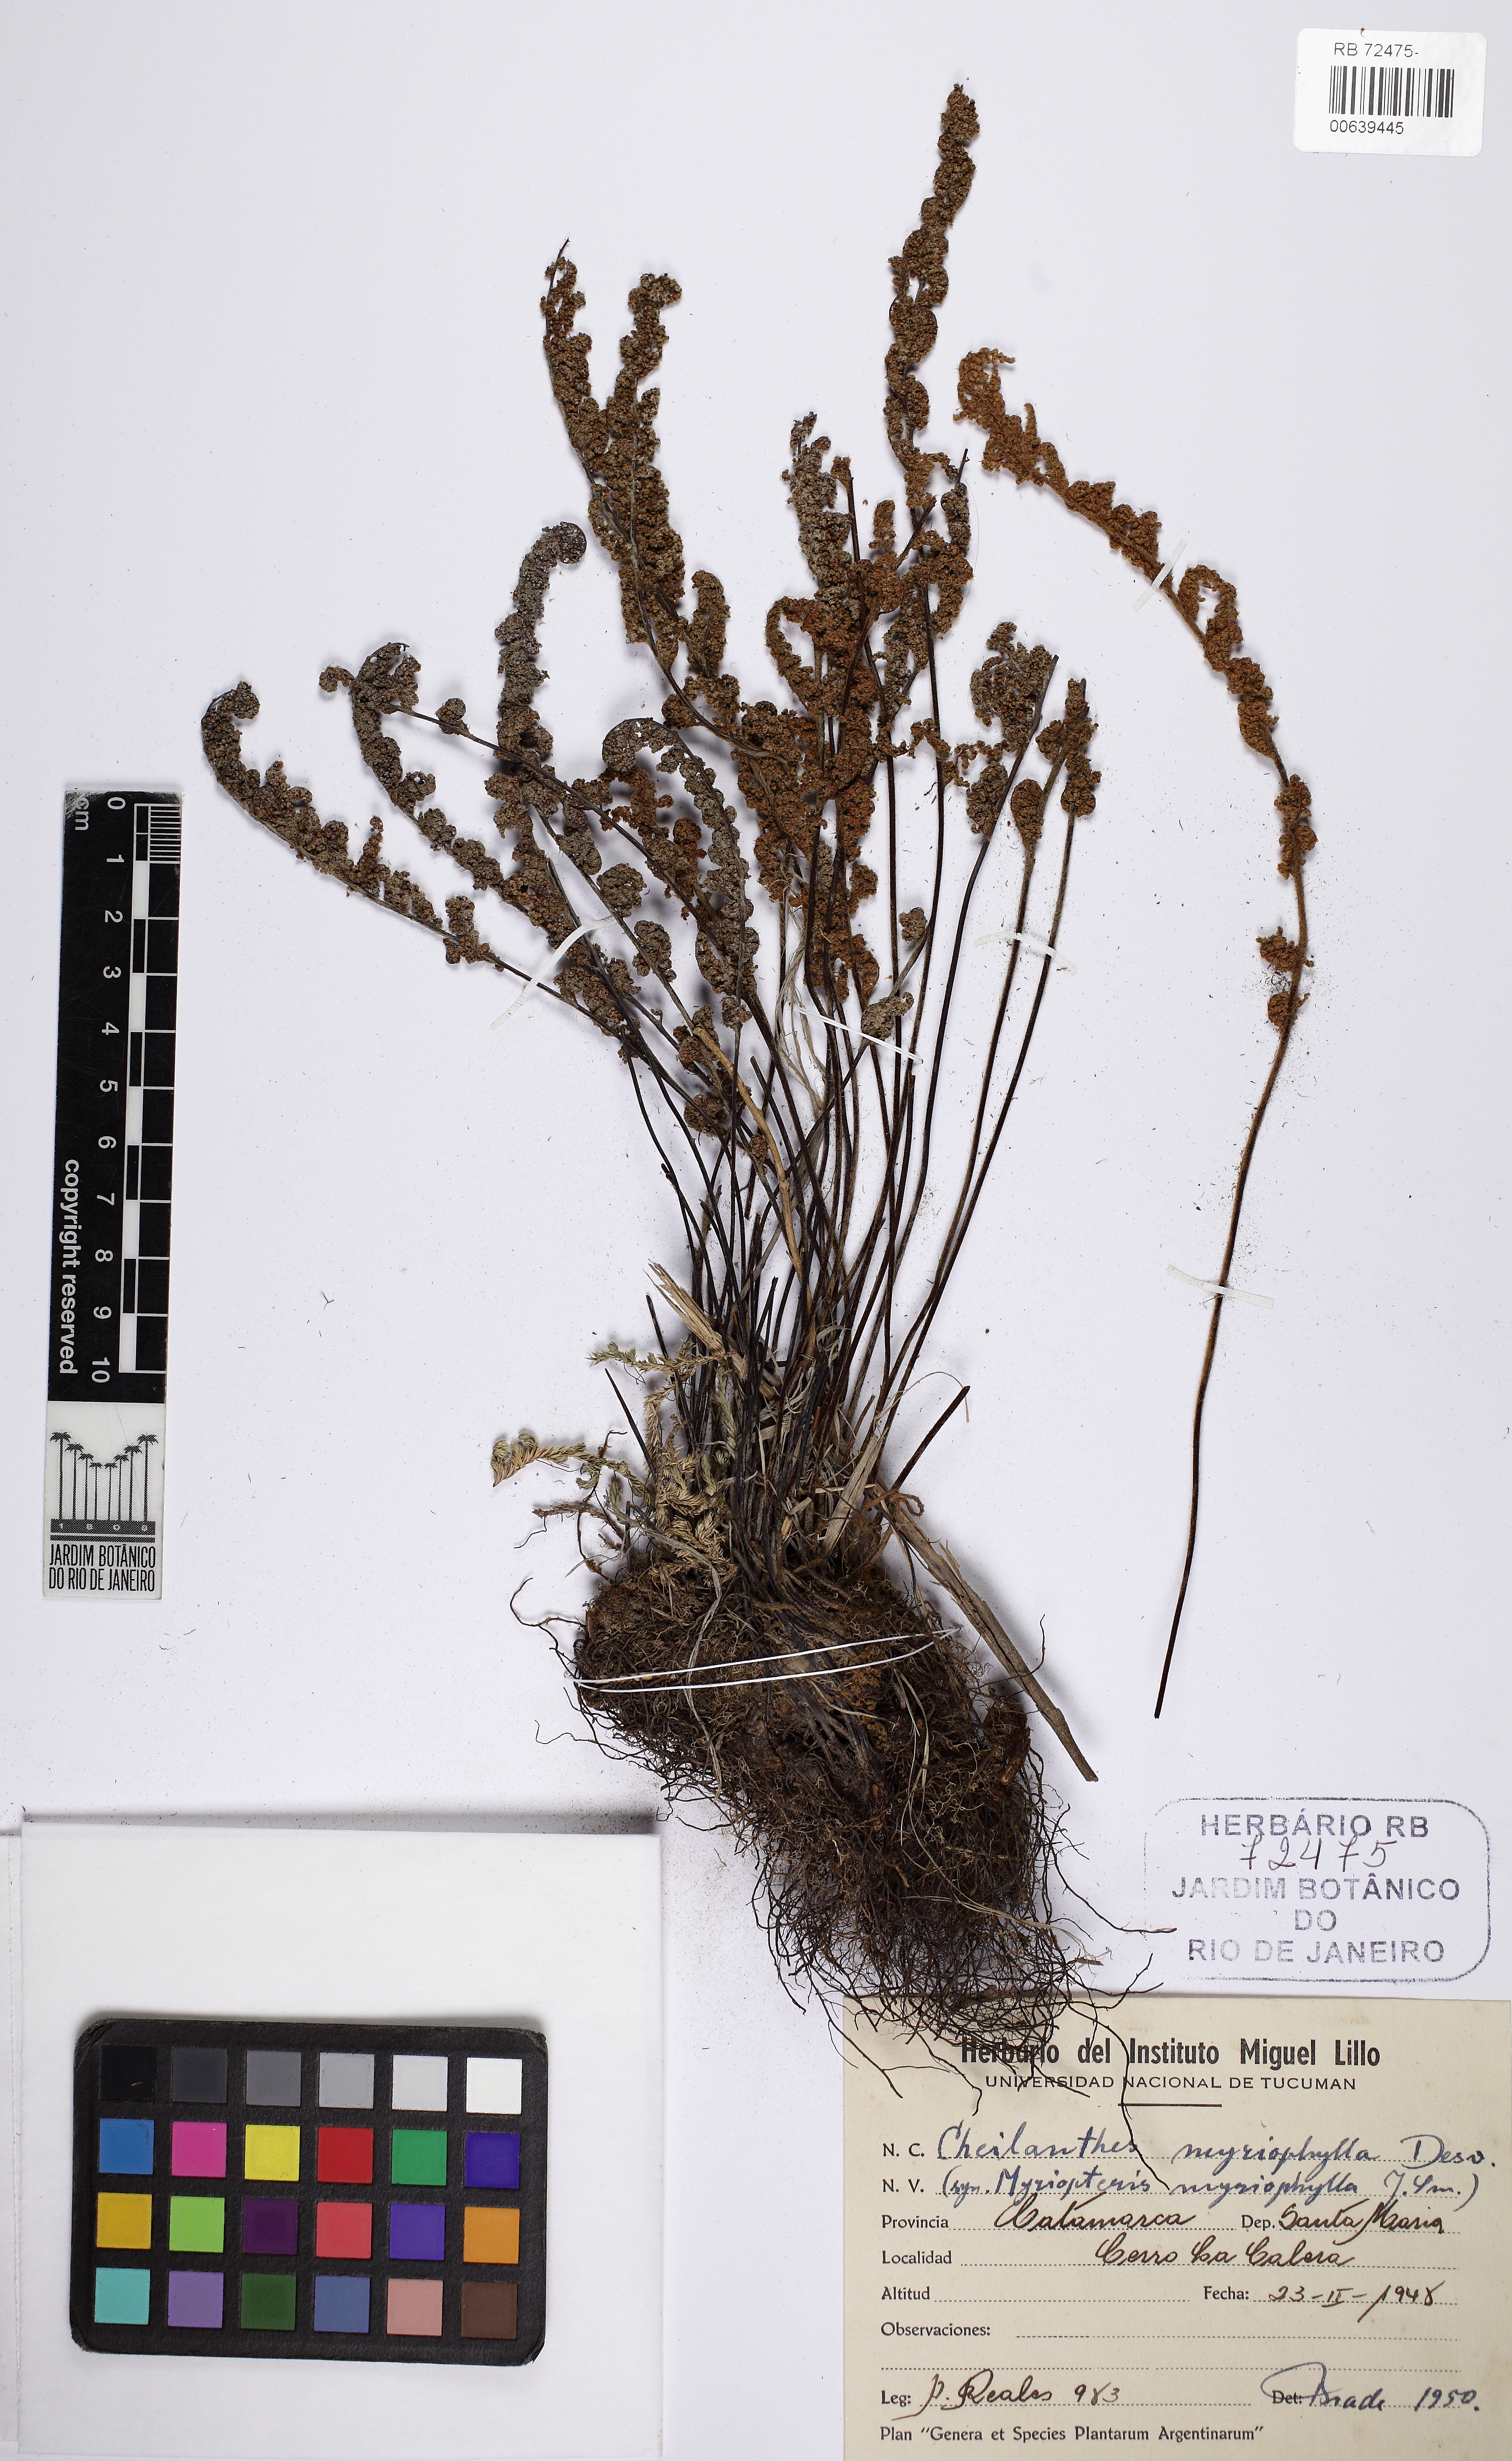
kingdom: Plantae
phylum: Tracheophyta
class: Polypodiopsida
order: Polypodiales
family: Pteridaceae
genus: Myriopteris
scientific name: Myriopteris myriophylla
